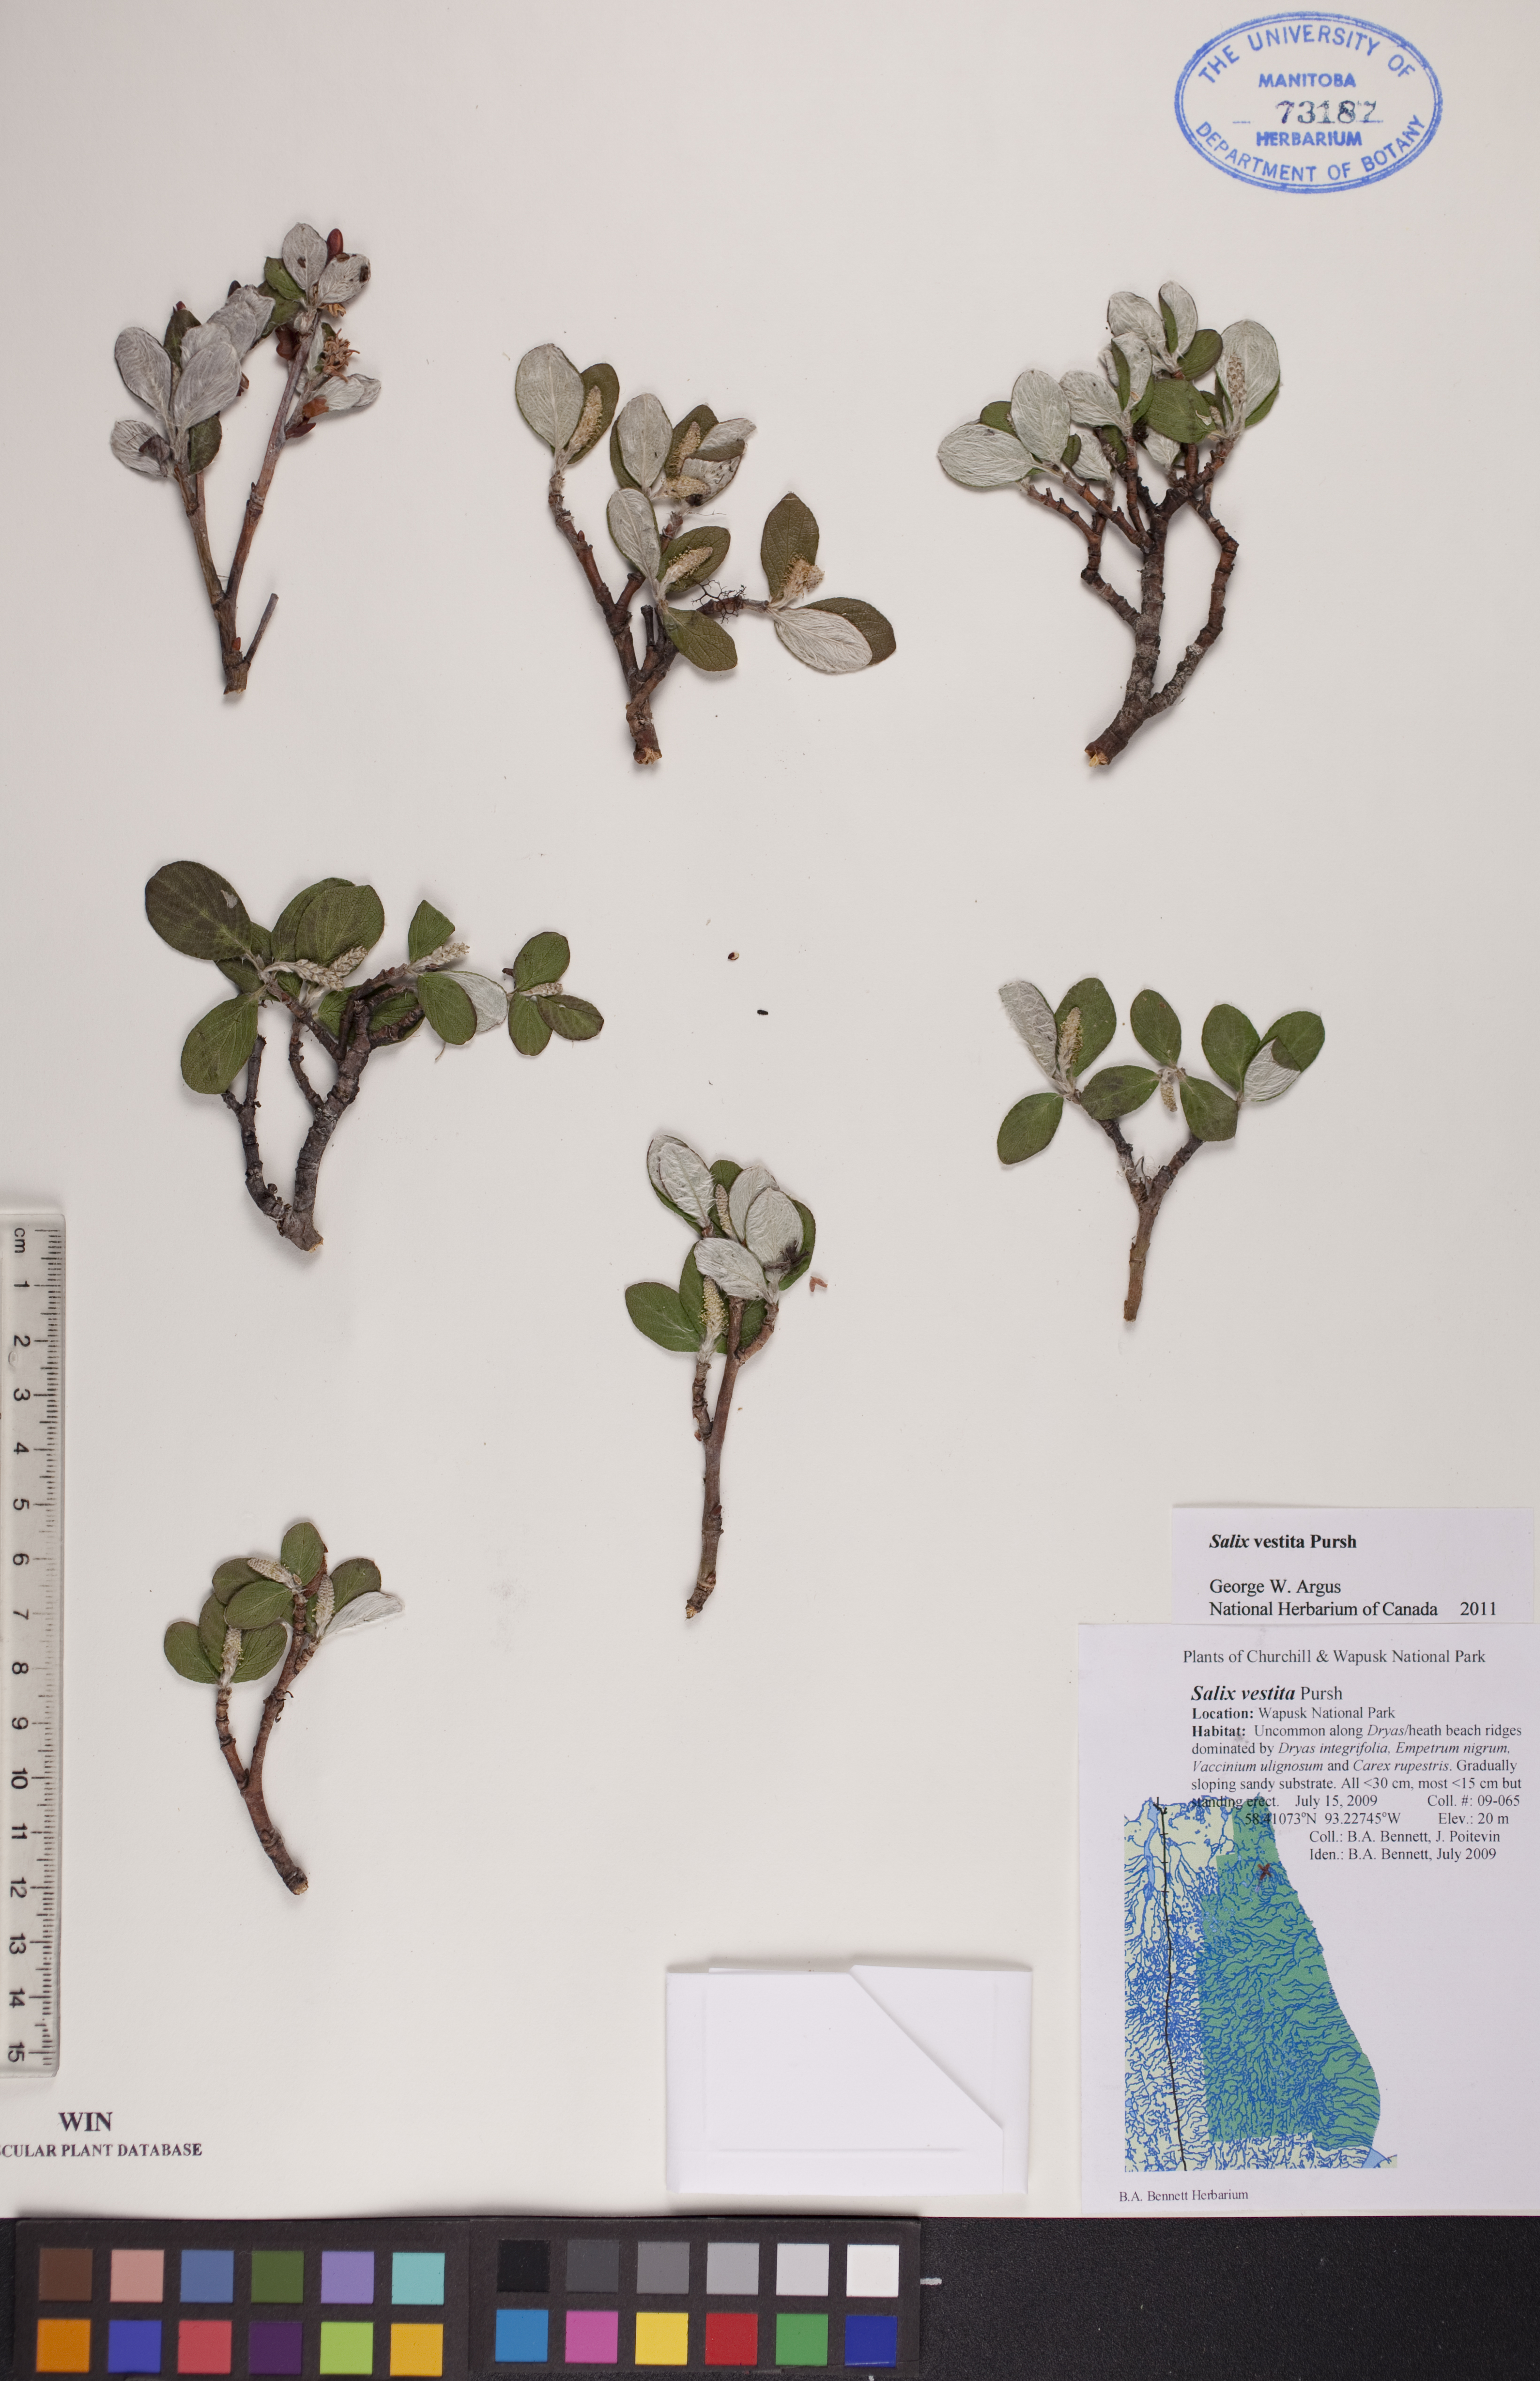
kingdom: Plantae
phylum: Tracheophyta
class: Magnoliopsida
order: Malpighiales
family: Salicaceae
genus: Salix
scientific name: Salix vestita
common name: Hairy willow
